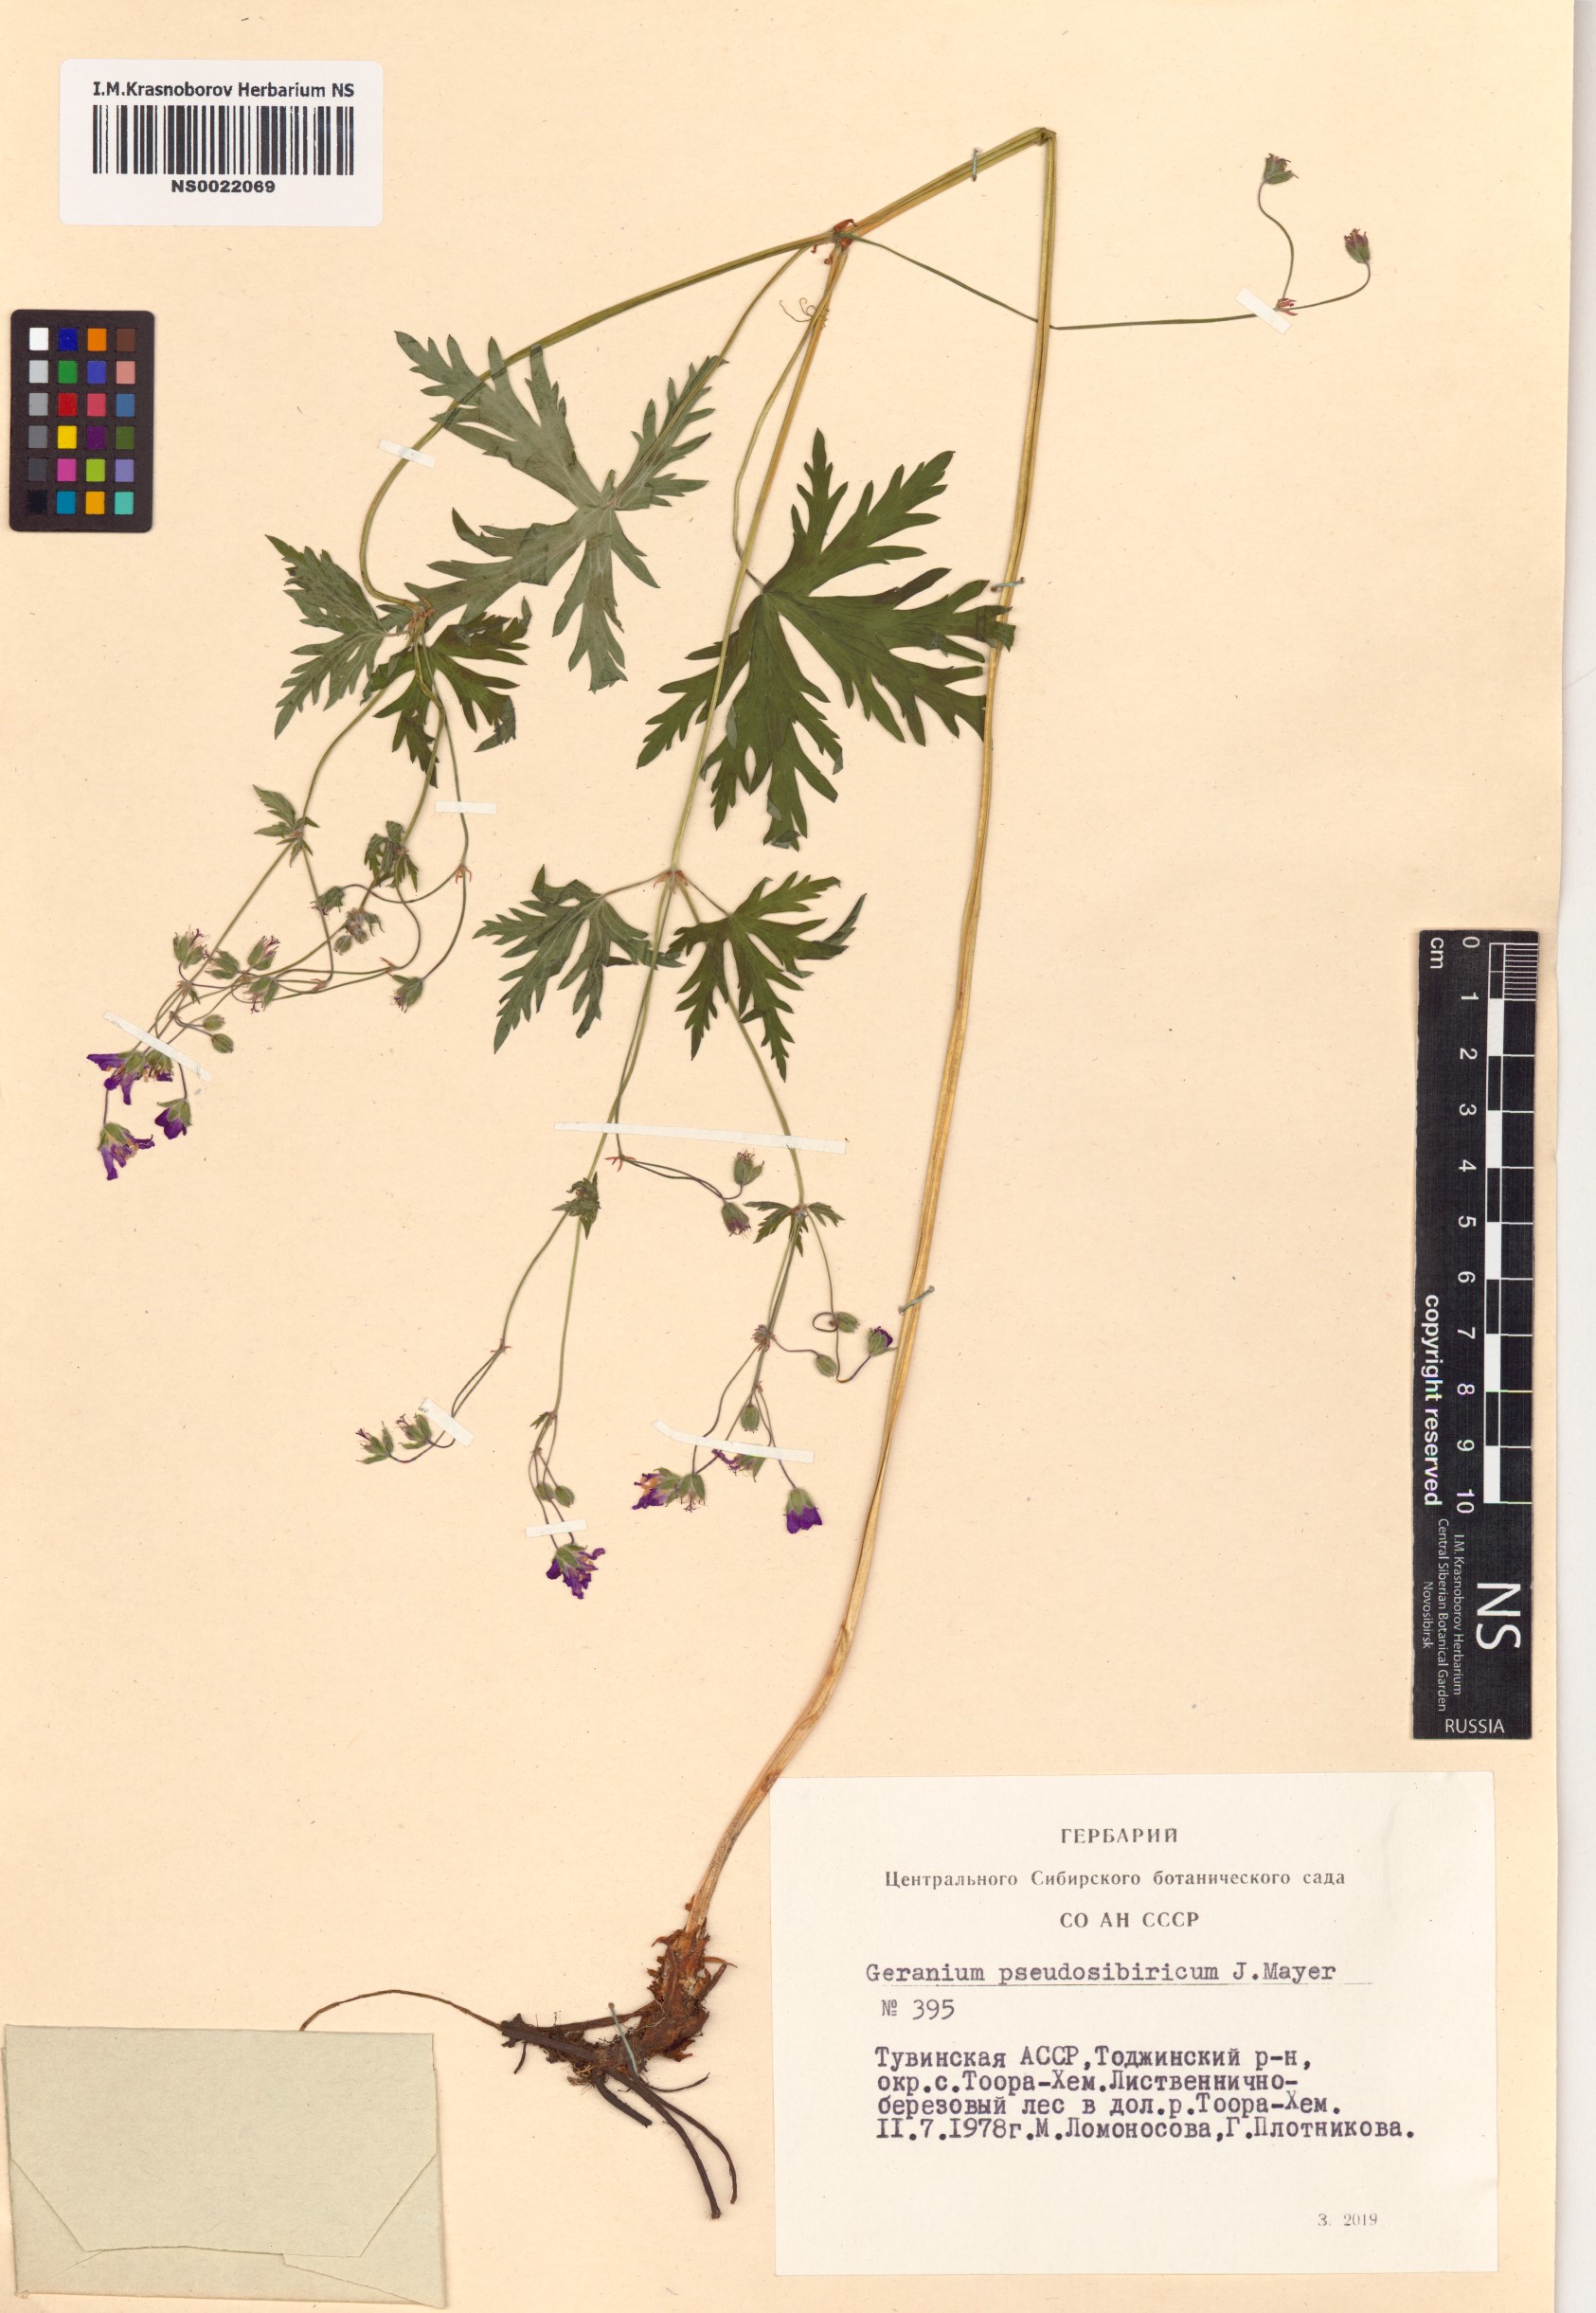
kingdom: Plantae
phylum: Tracheophyta
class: Magnoliopsida
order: Geraniales
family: Geraniaceae
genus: Geranium
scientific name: Geranium pseudosibiricum
